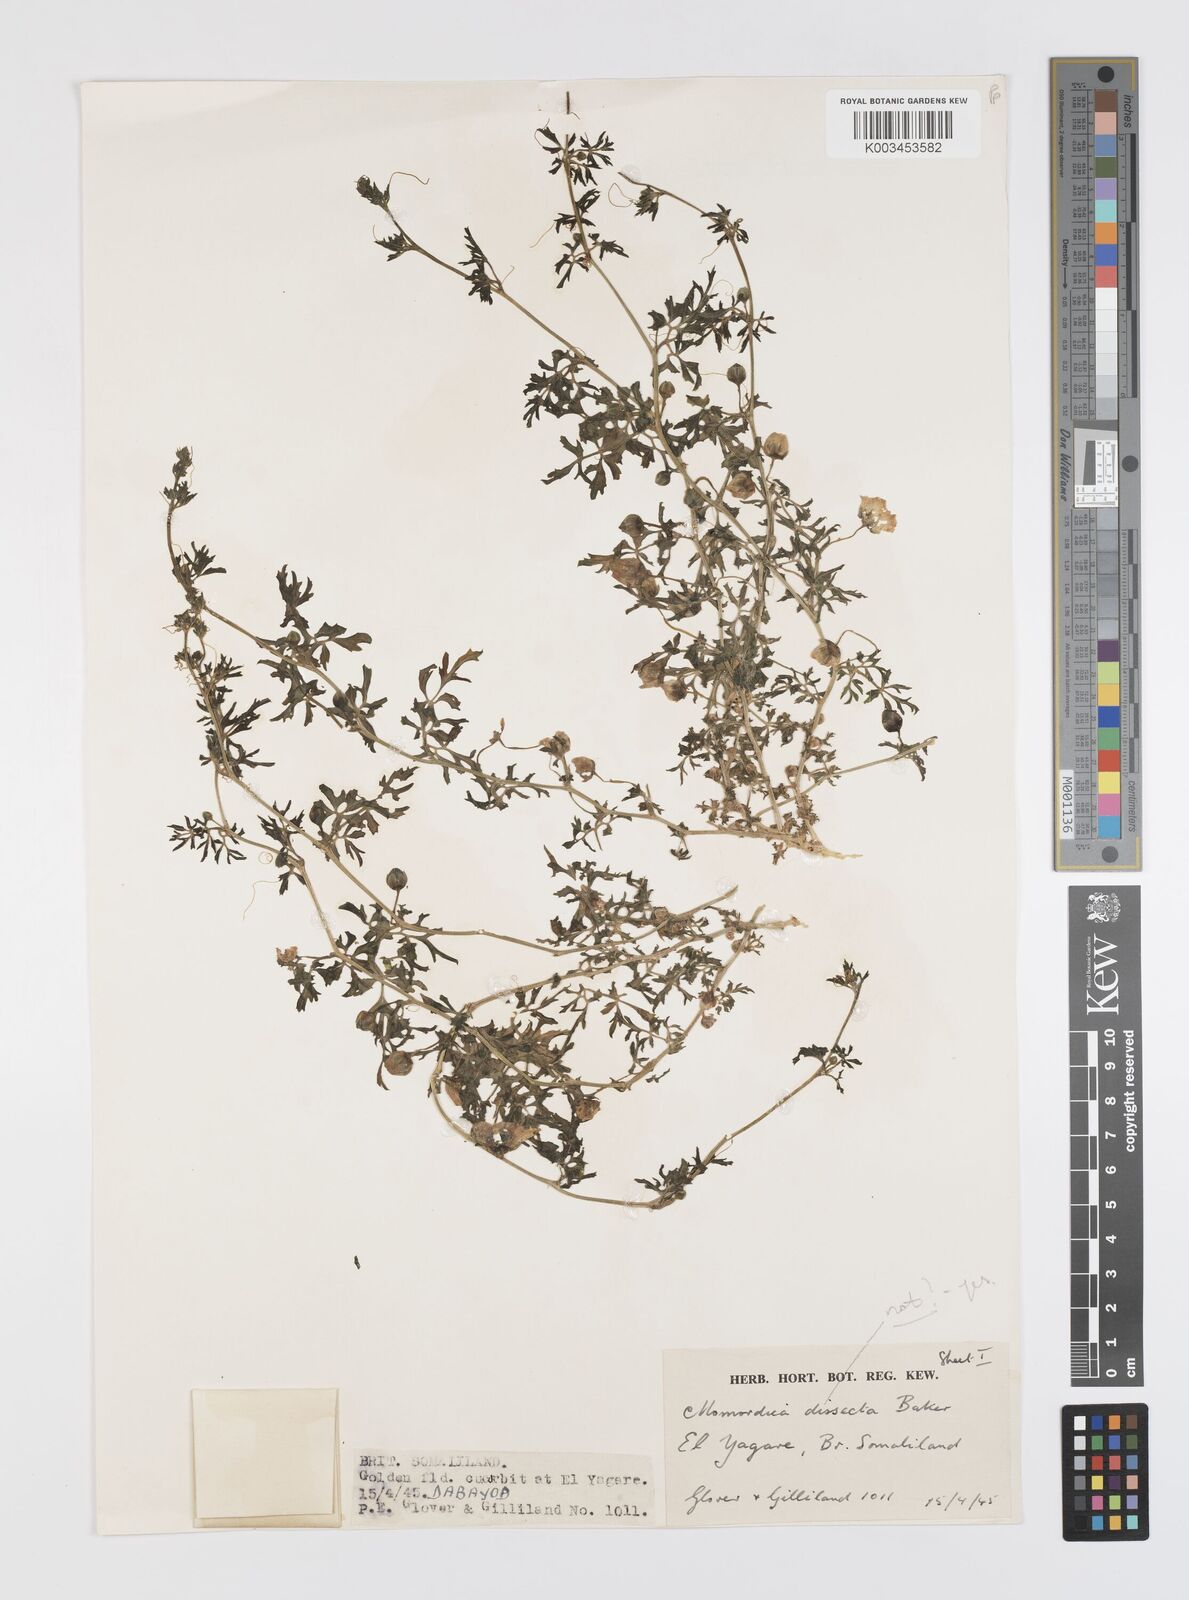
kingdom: Plantae
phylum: Tracheophyta
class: Magnoliopsida
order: Cucurbitales
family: Cucurbitaceae
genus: Momordica
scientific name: Momordica dissecta
